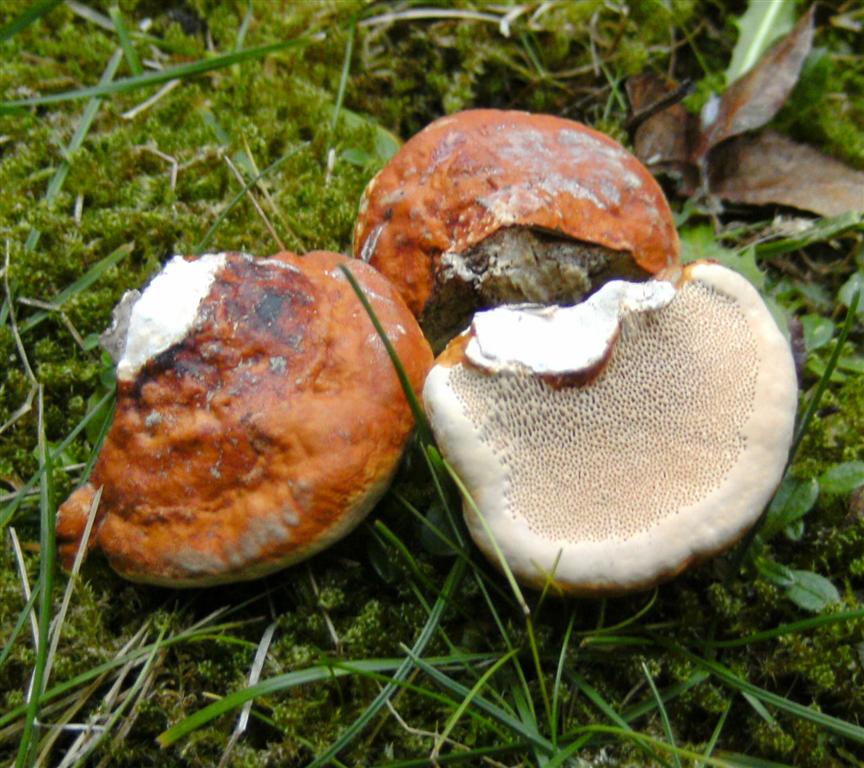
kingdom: Fungi
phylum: Basidiomycota
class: Agaricomycetes
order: Polyporales
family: Fomitopsidaceae
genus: Fomitopsis
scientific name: Fomitopsis pinicola
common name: randbæltet hovporesvamp
